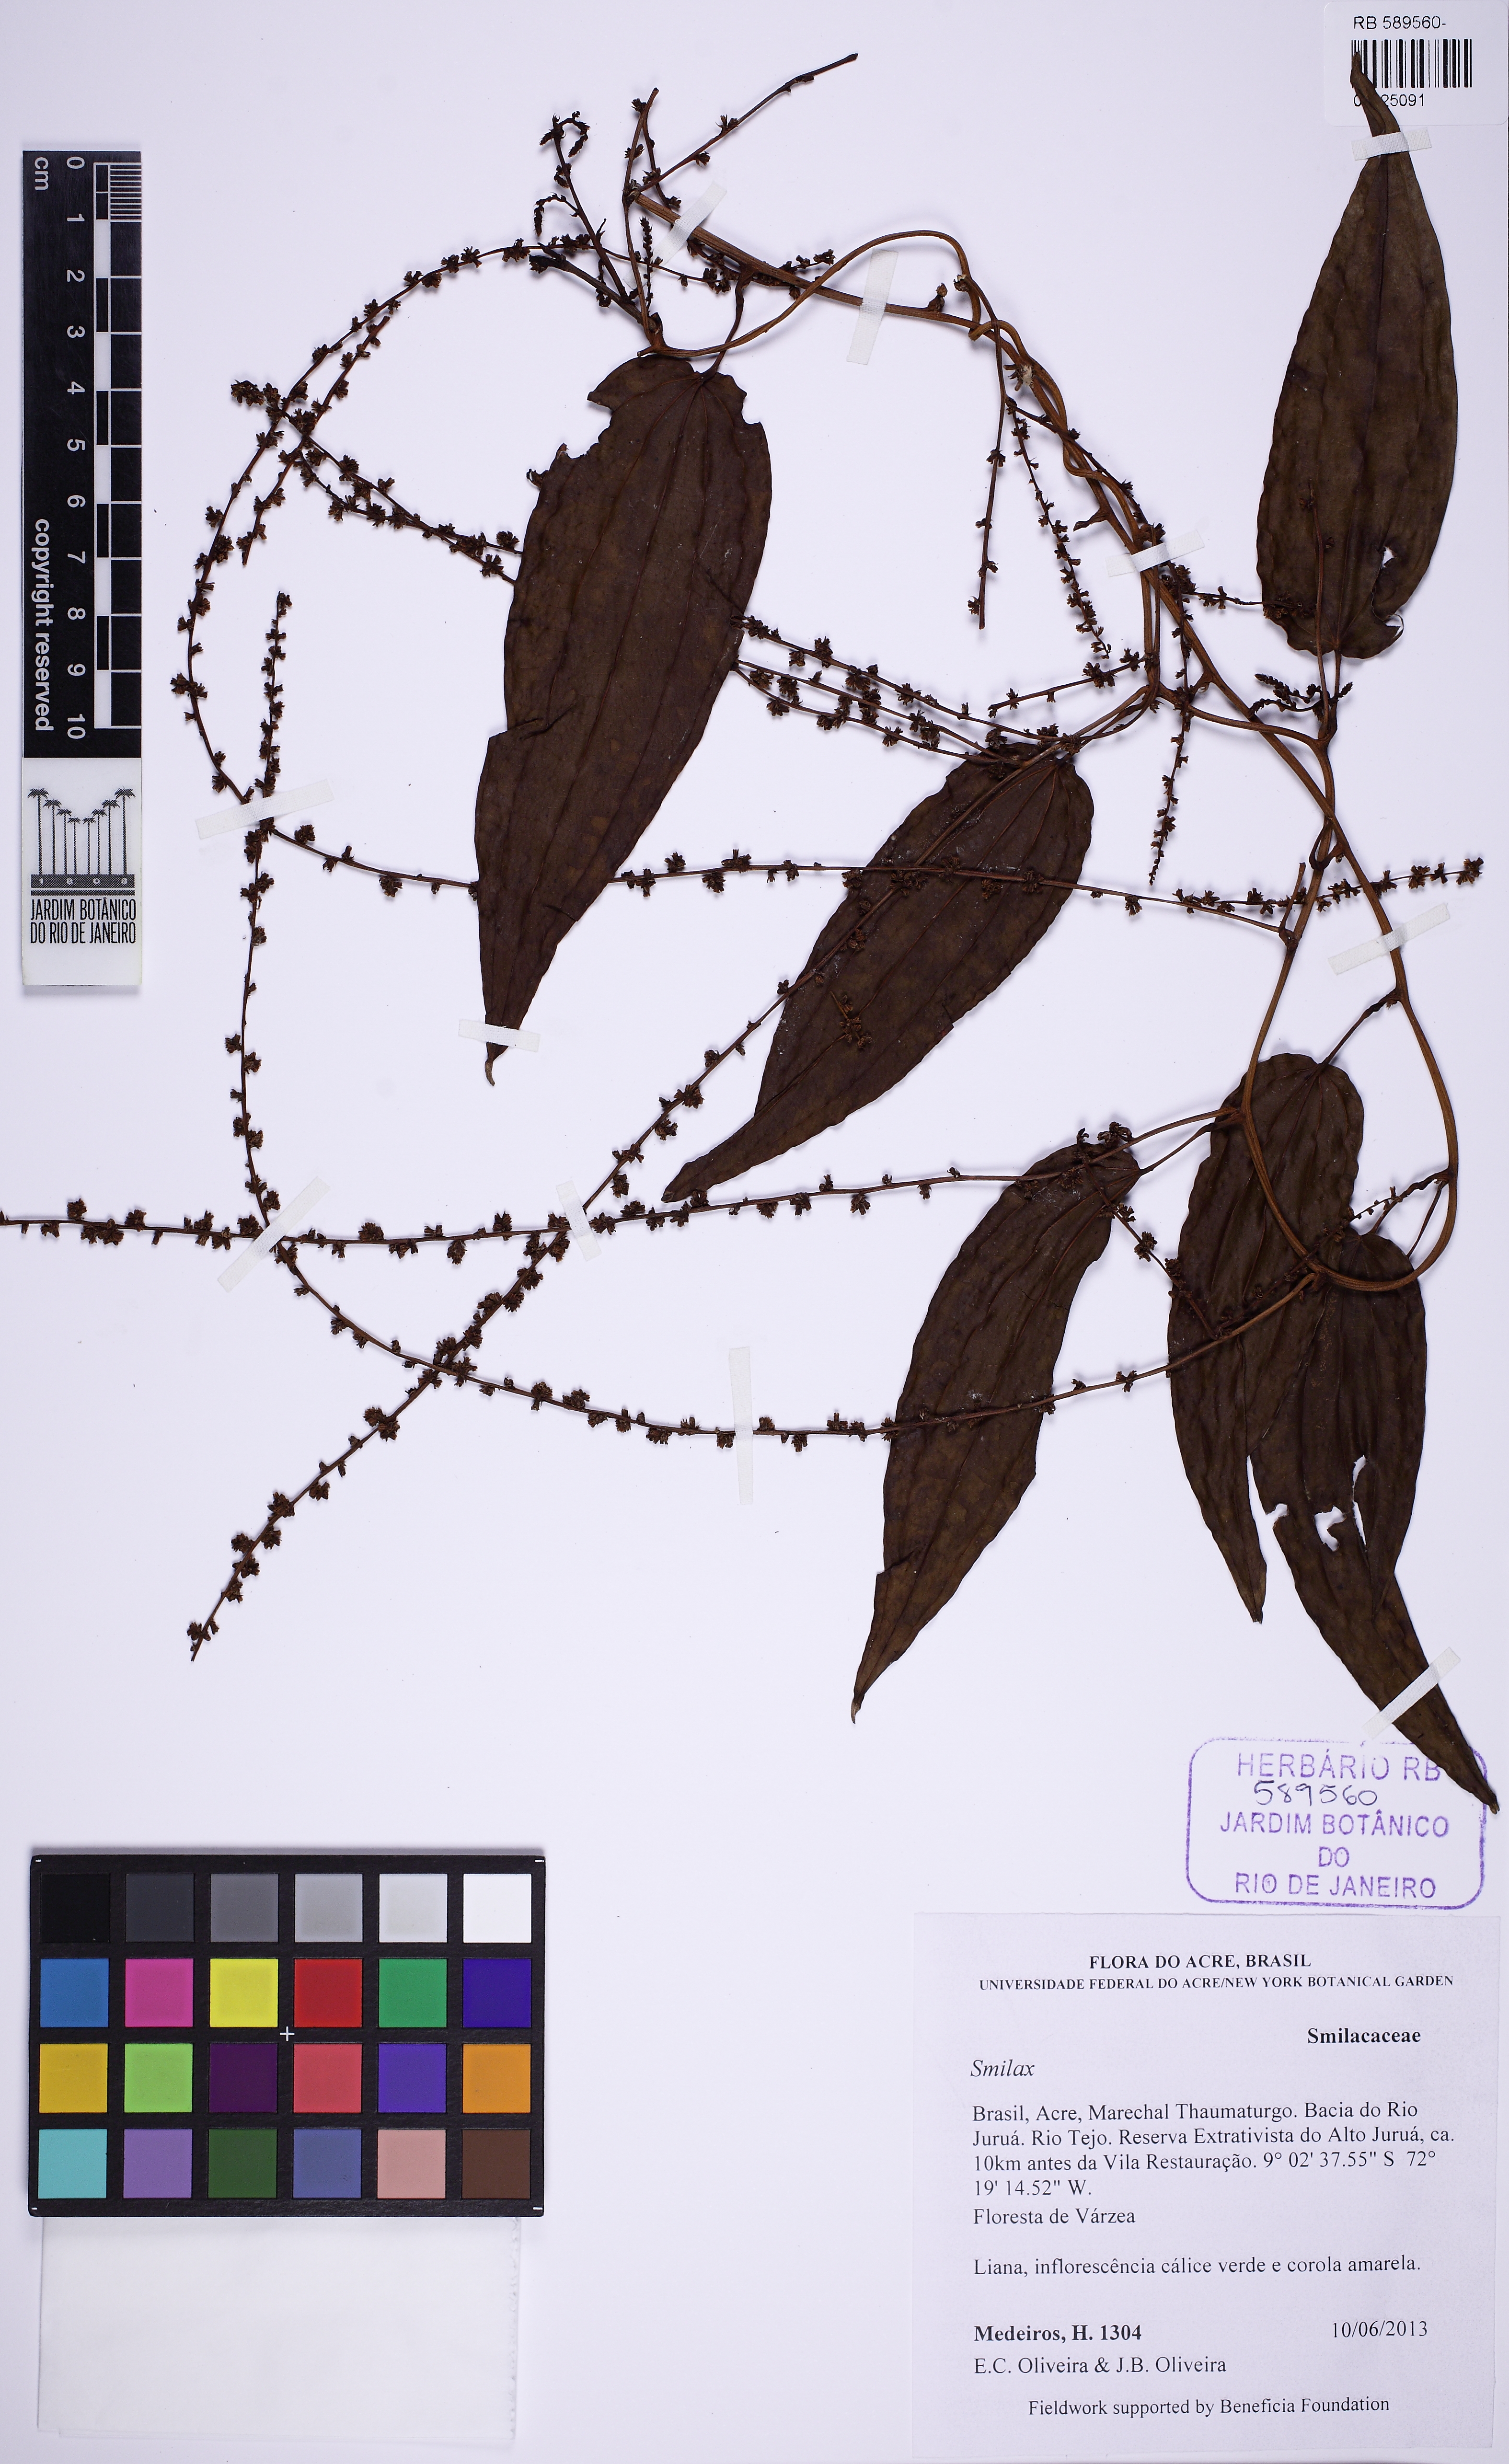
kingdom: Plantae
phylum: Tracheophyta
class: Liliopsida
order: Liliales
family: Smilacaceae
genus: Smilax
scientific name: Smilax
